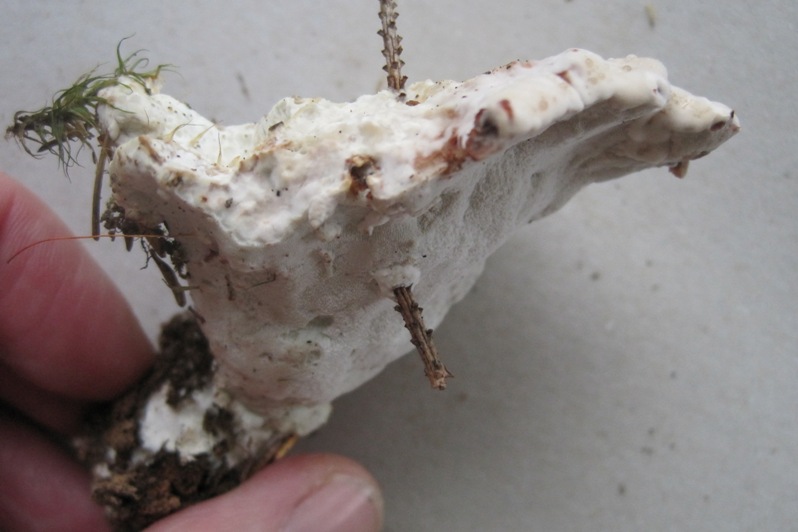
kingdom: Fungi
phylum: Basidiomycota
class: Agaricomycetes
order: Polyporales
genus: Calcipostia
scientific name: Calcipostia guttulata
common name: dråbe-kødporesvamp
